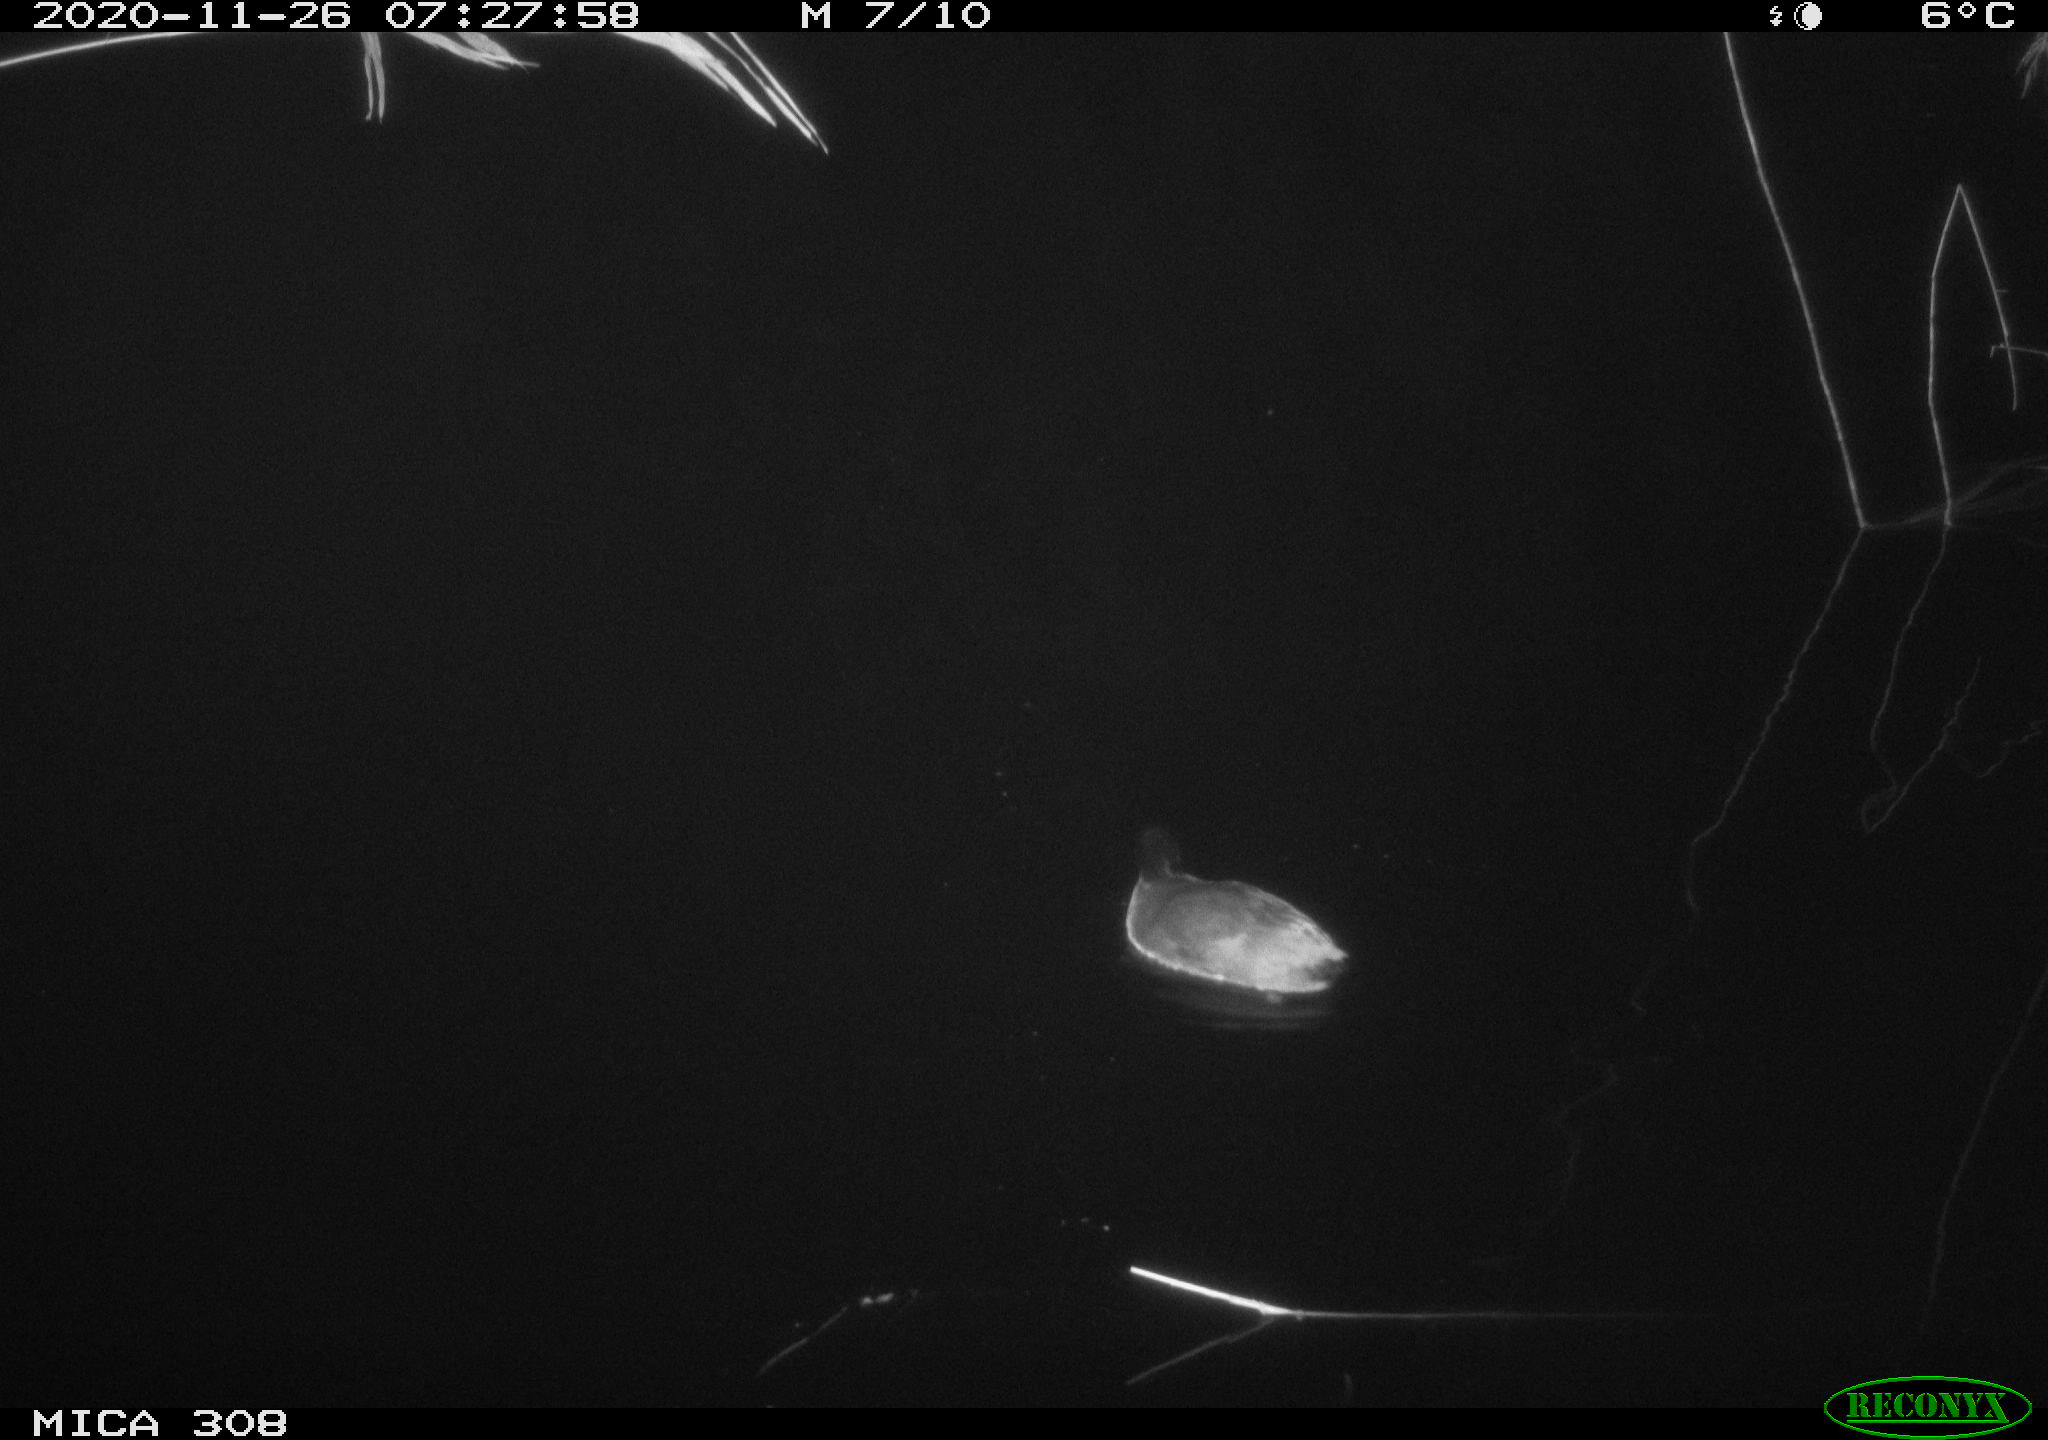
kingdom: Animalia
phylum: Chordata
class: Aves
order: Gruiformes
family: Rallidae
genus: Fulica
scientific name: Fulica atra
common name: Eurasian coot
